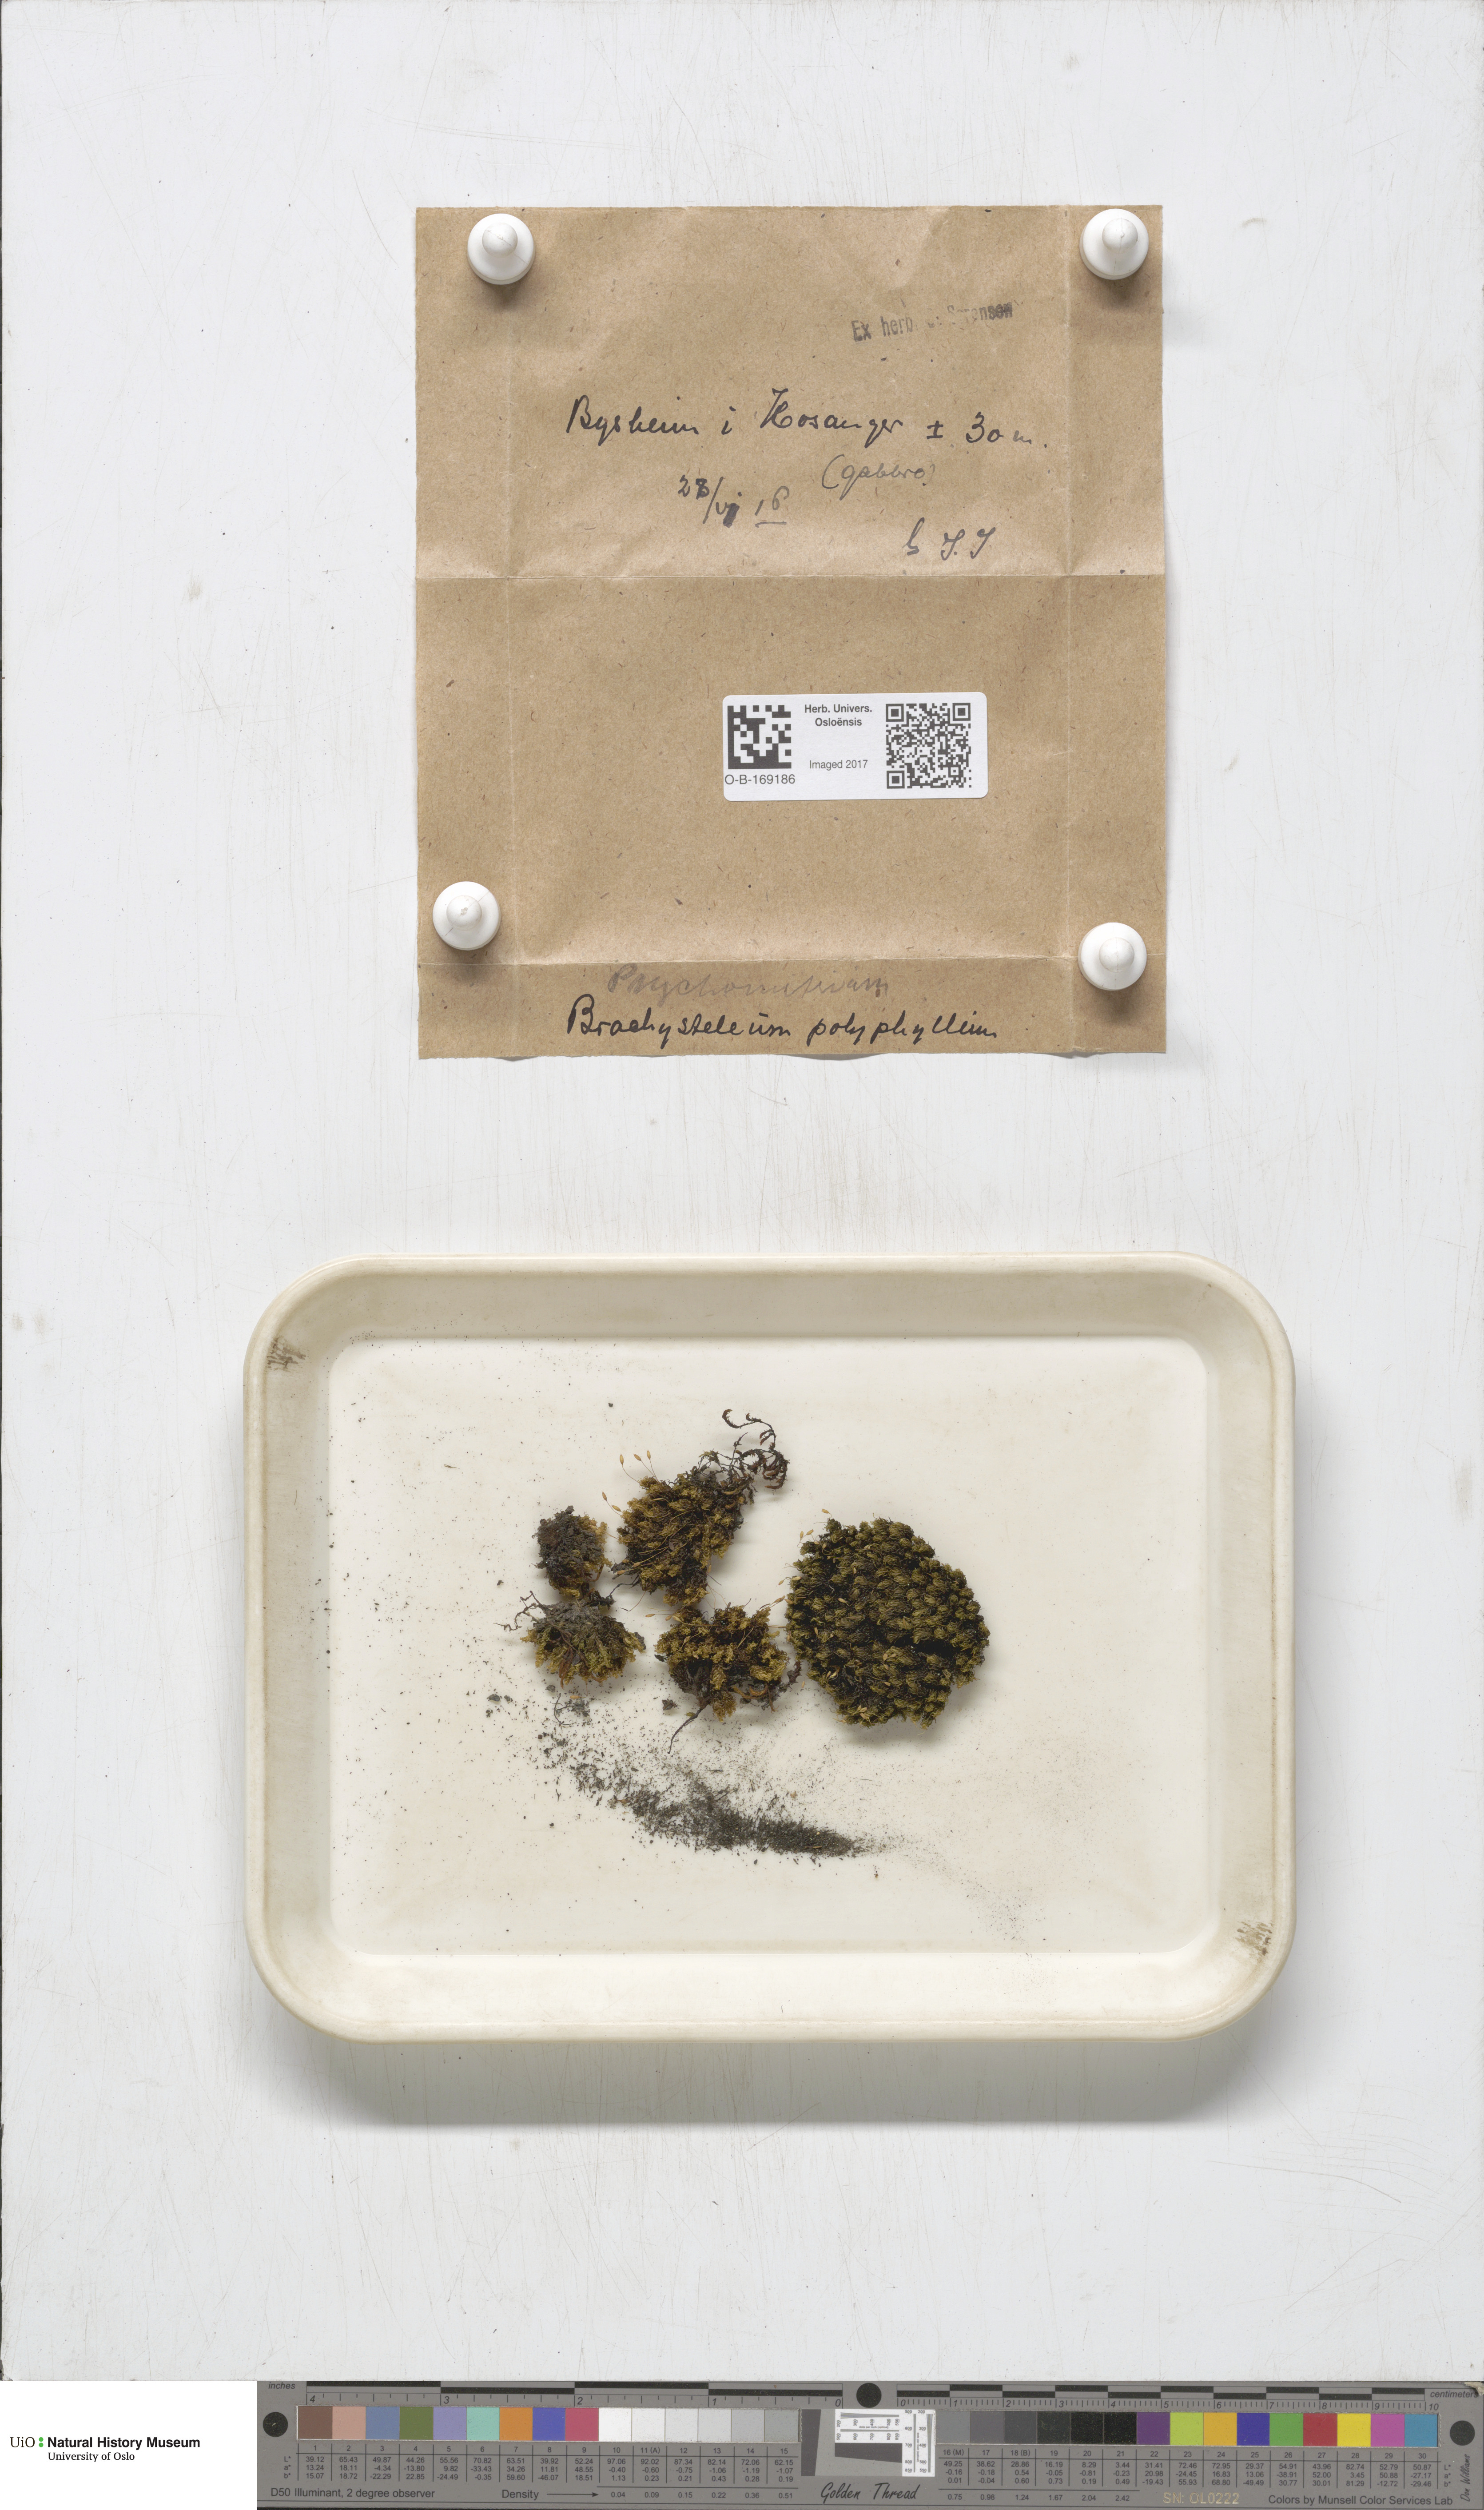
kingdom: Plantae
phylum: Bryophyta
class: Bryopsida
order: Grimmiales
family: Ptychomitriaceae
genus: Ptychomitrium
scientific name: Ptychomitrium polyphyllum
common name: Greater pincushion
